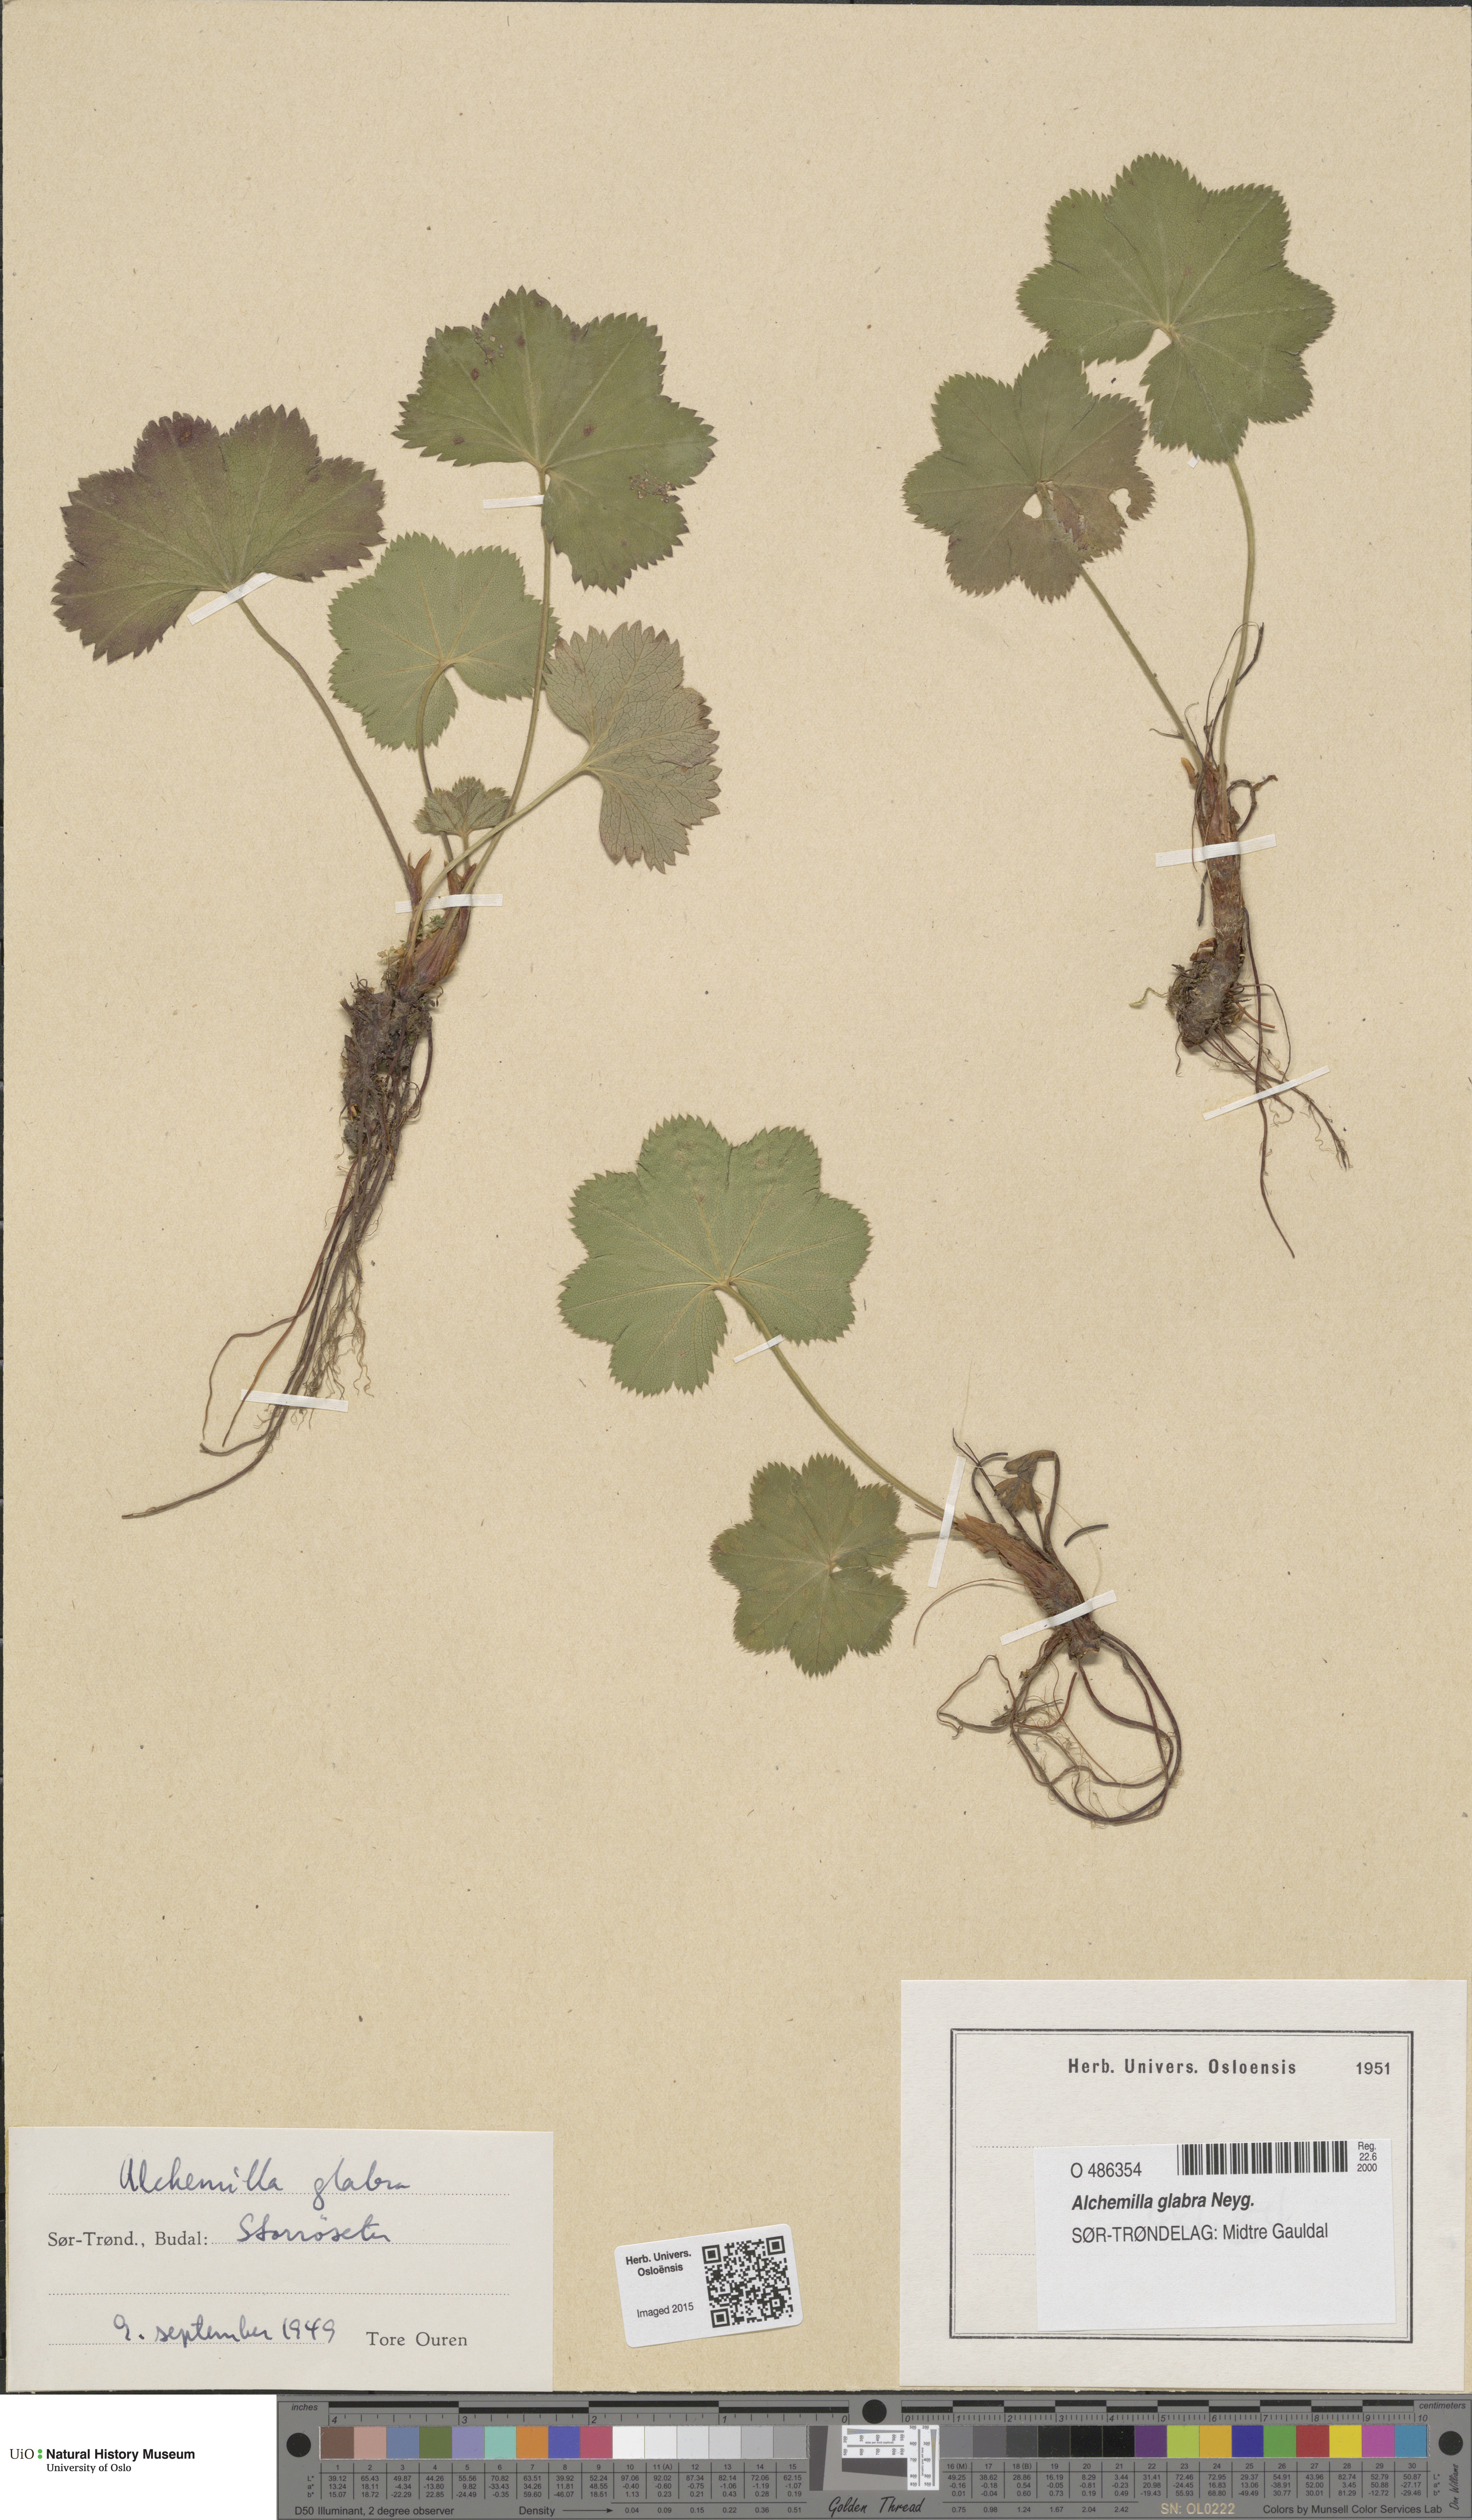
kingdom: Plantae
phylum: Tracheophyta
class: Magnoliopsida
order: Rosales
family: Rosaceae
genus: Alchemilla
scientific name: Alchemilla glabra
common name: Smooth lady's-mantle
